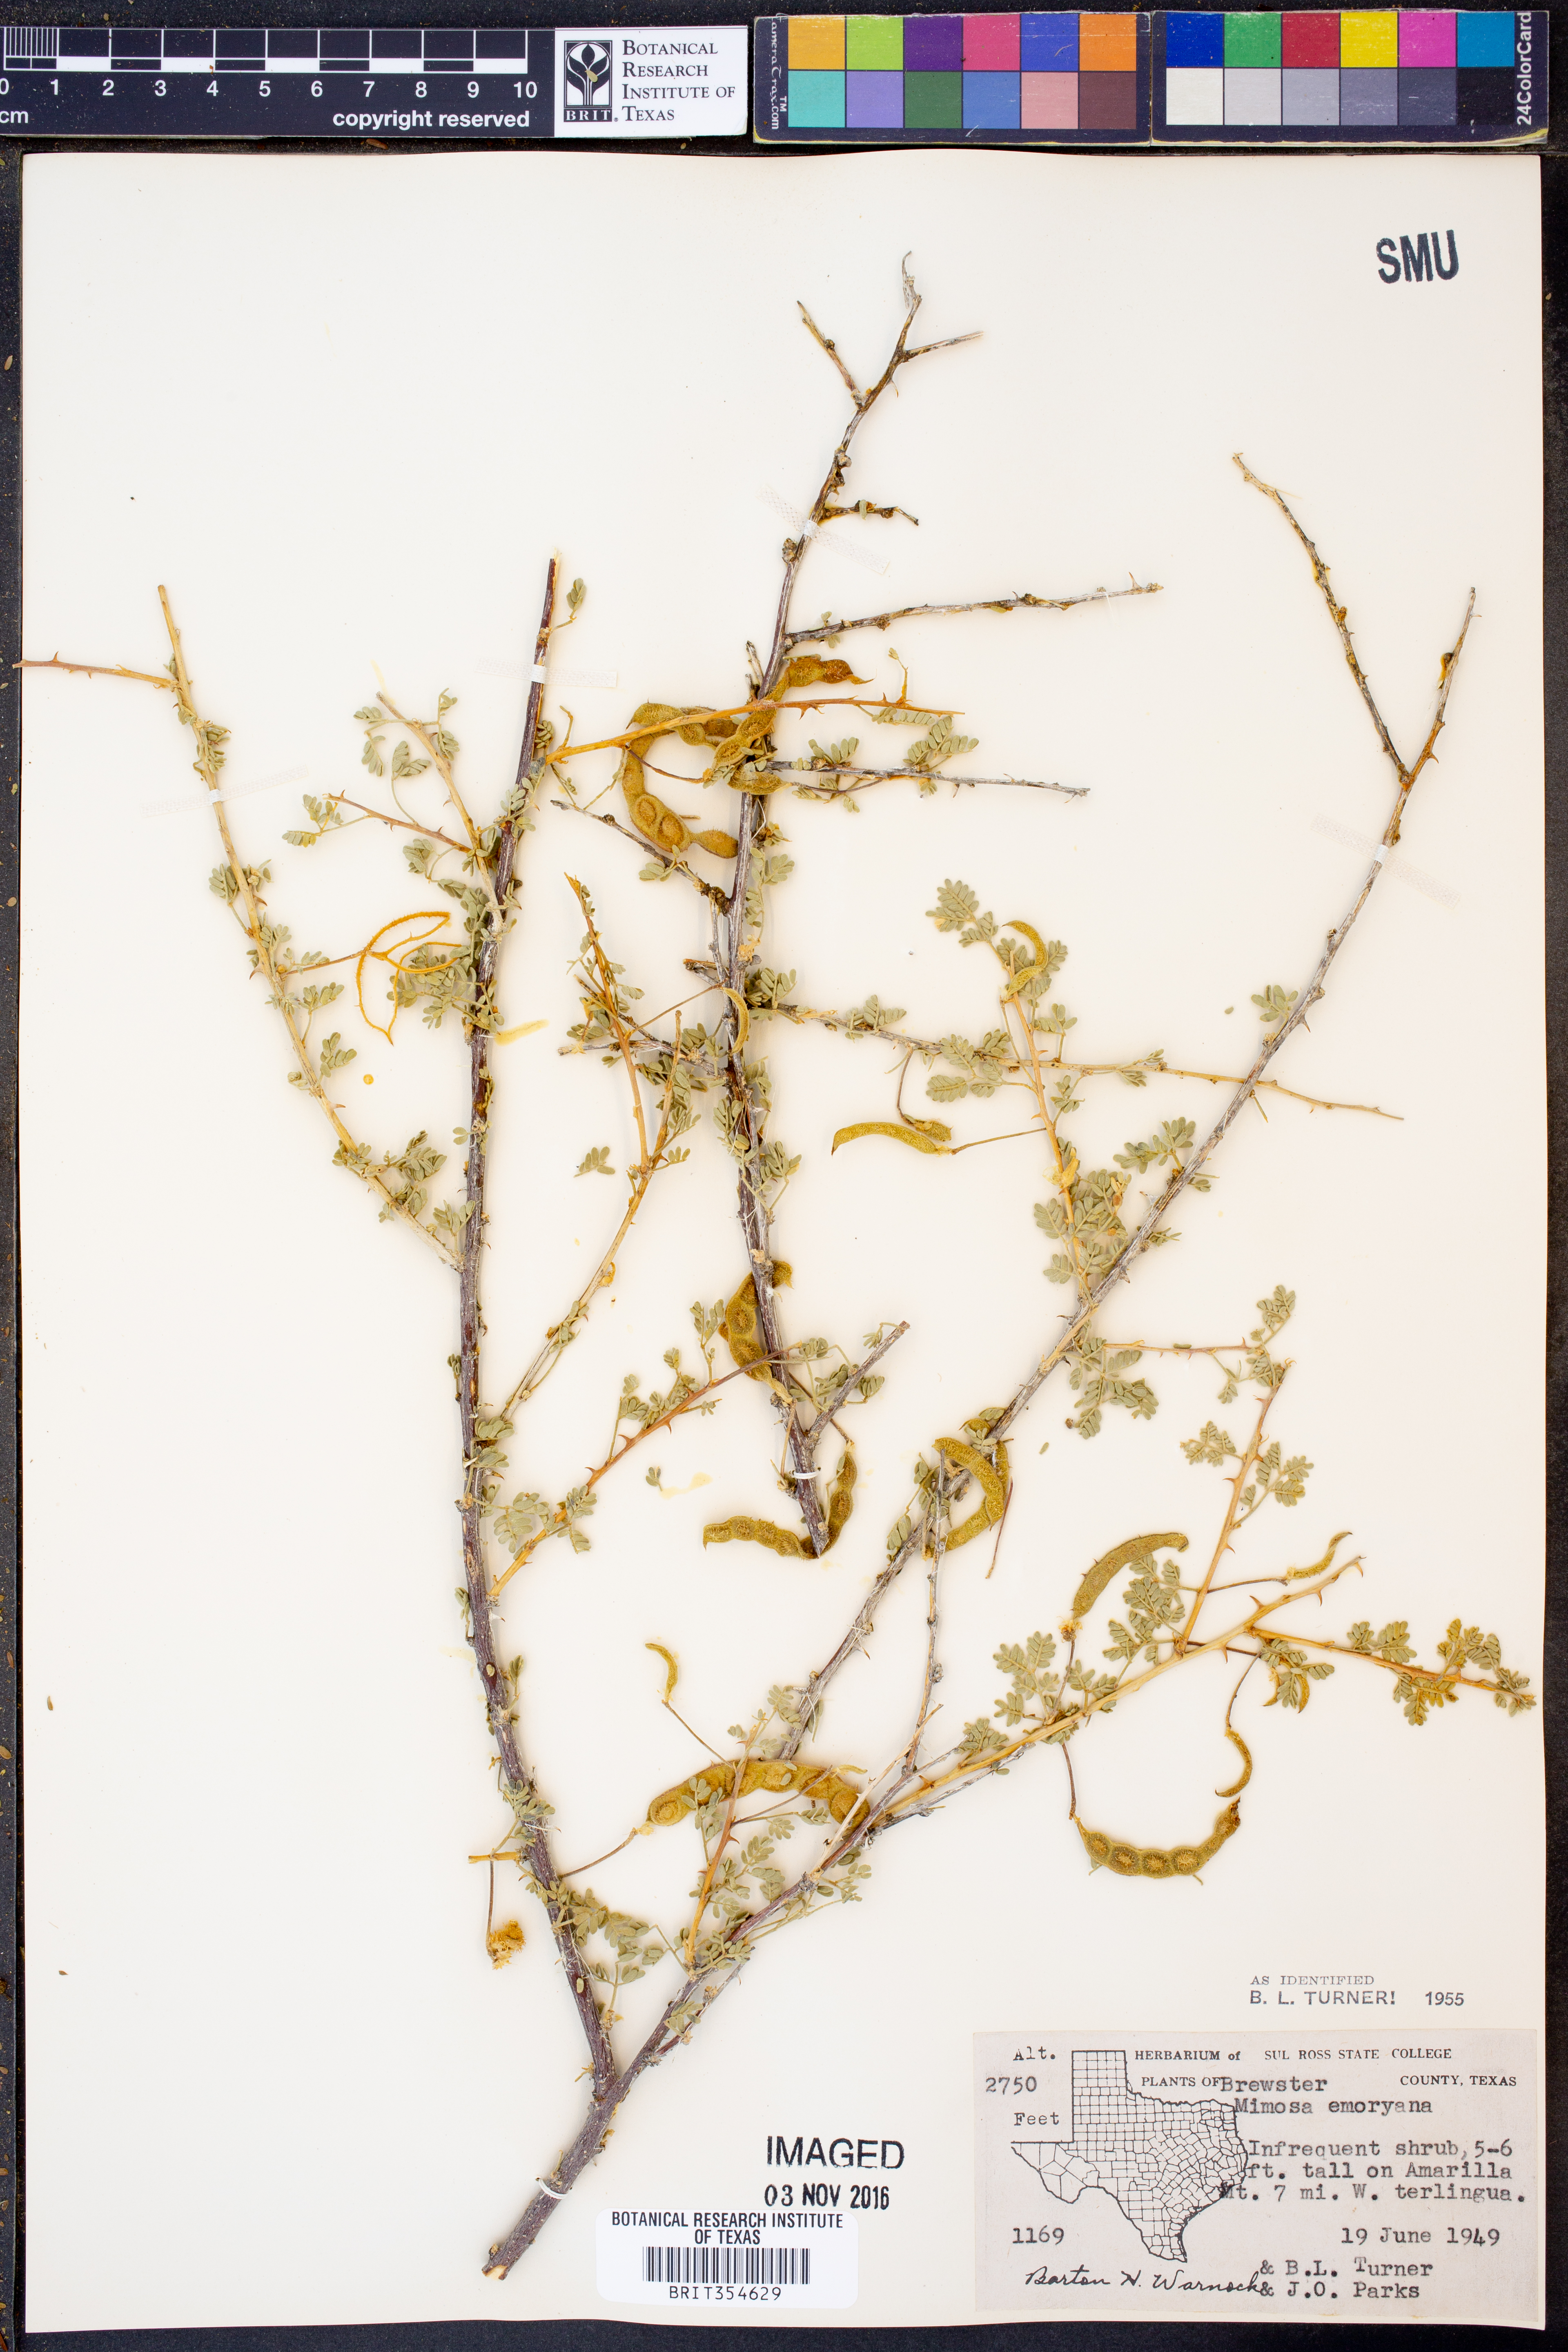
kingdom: Plantae
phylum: Tracheophyta
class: Magnoliopsida
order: Fabales
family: Fabaceae
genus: Mimosa
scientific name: Mimosa emoryana
